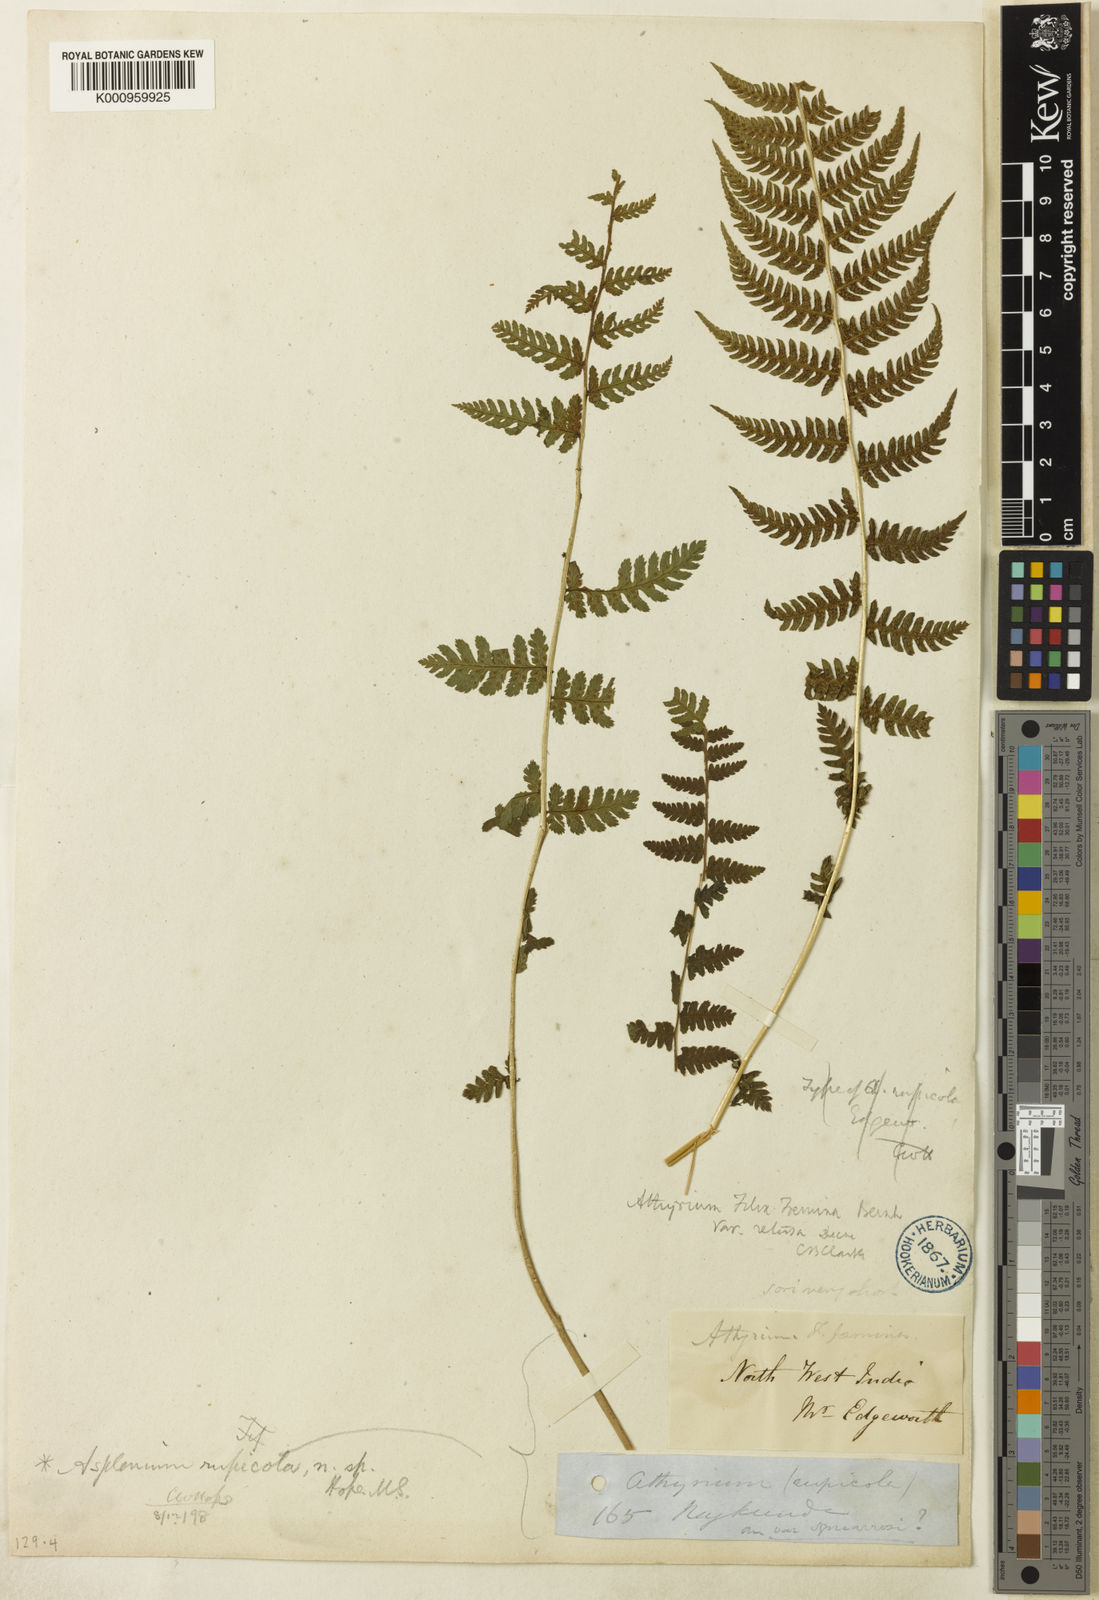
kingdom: Plantae
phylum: Tracheophyta
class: Polypodiopsida
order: Polypodiales
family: Athyriaceae
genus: Athyrium
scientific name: Athyrium rupicola
